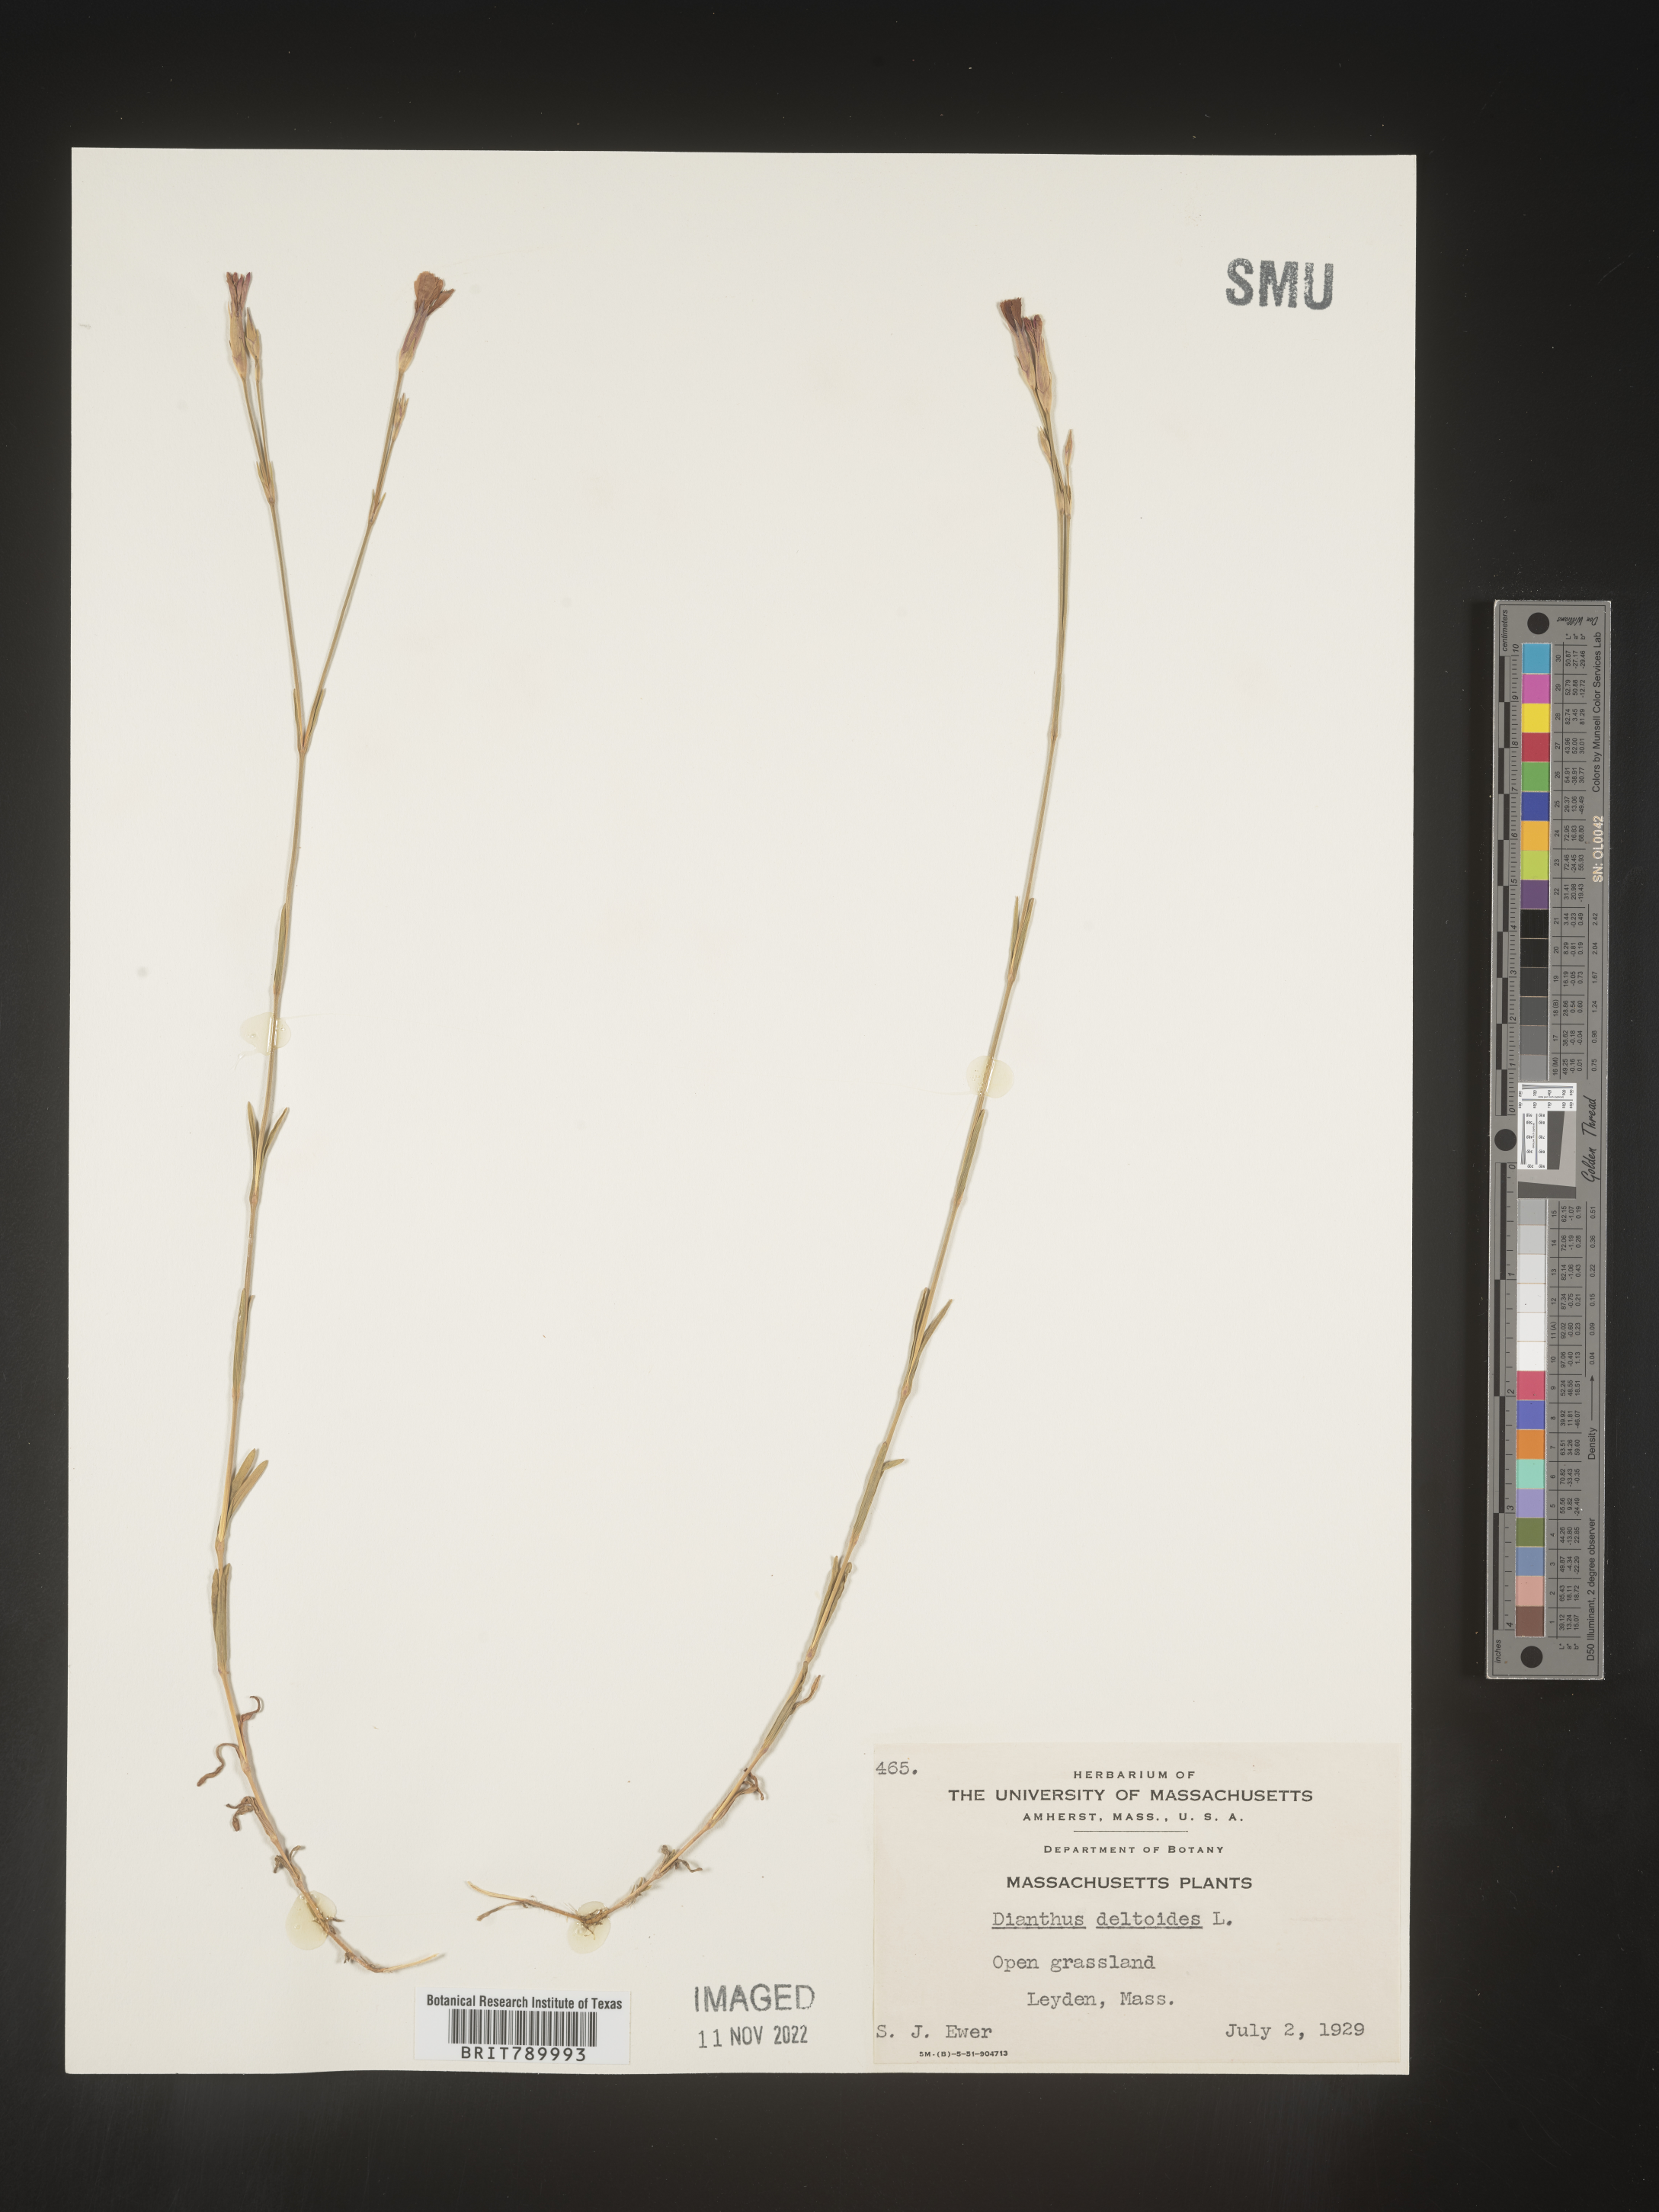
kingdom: Plantae
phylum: Tracheophyta
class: Magnoliopsida
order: Caryophyllales
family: Caryophyllaceae
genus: Dianthus
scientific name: Dianthus deltoides
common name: Maiden pink
